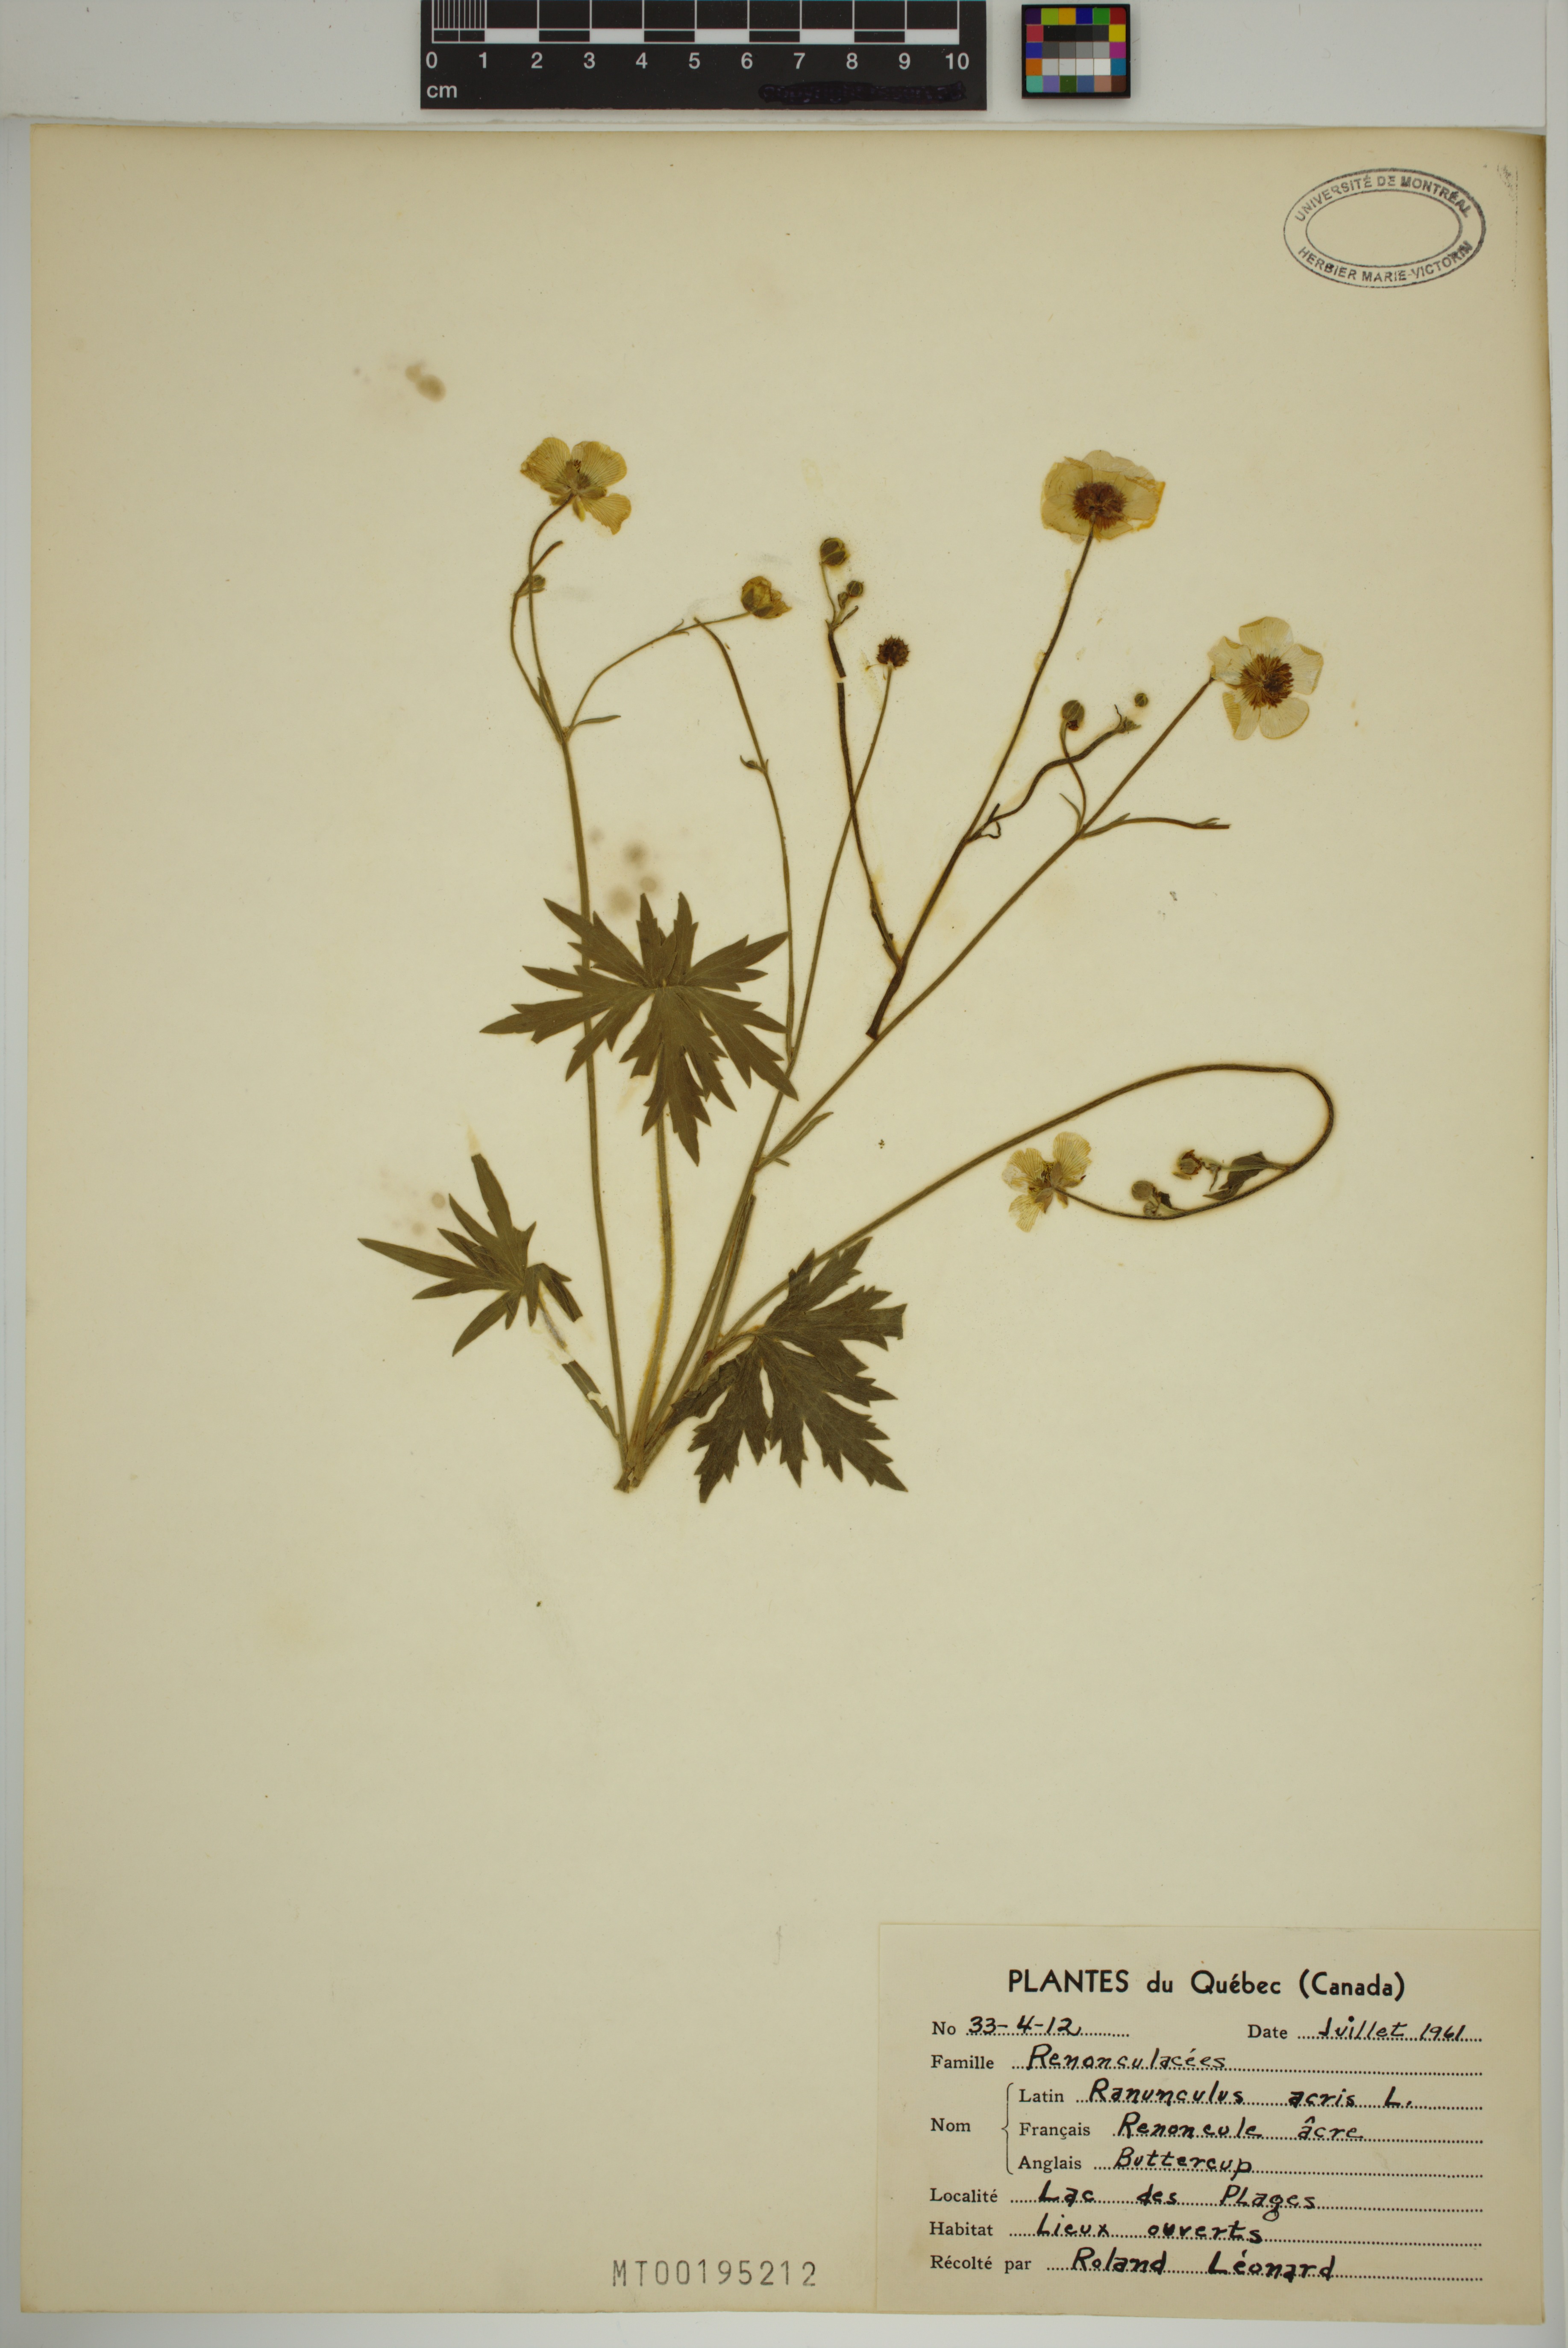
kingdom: Plantae
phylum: Tracheophyta
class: Magnoliopsida
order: Ranunculales
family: Ranunculaceae
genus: Ranunculus
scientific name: Ranunculus acris
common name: Meadow buttercup
